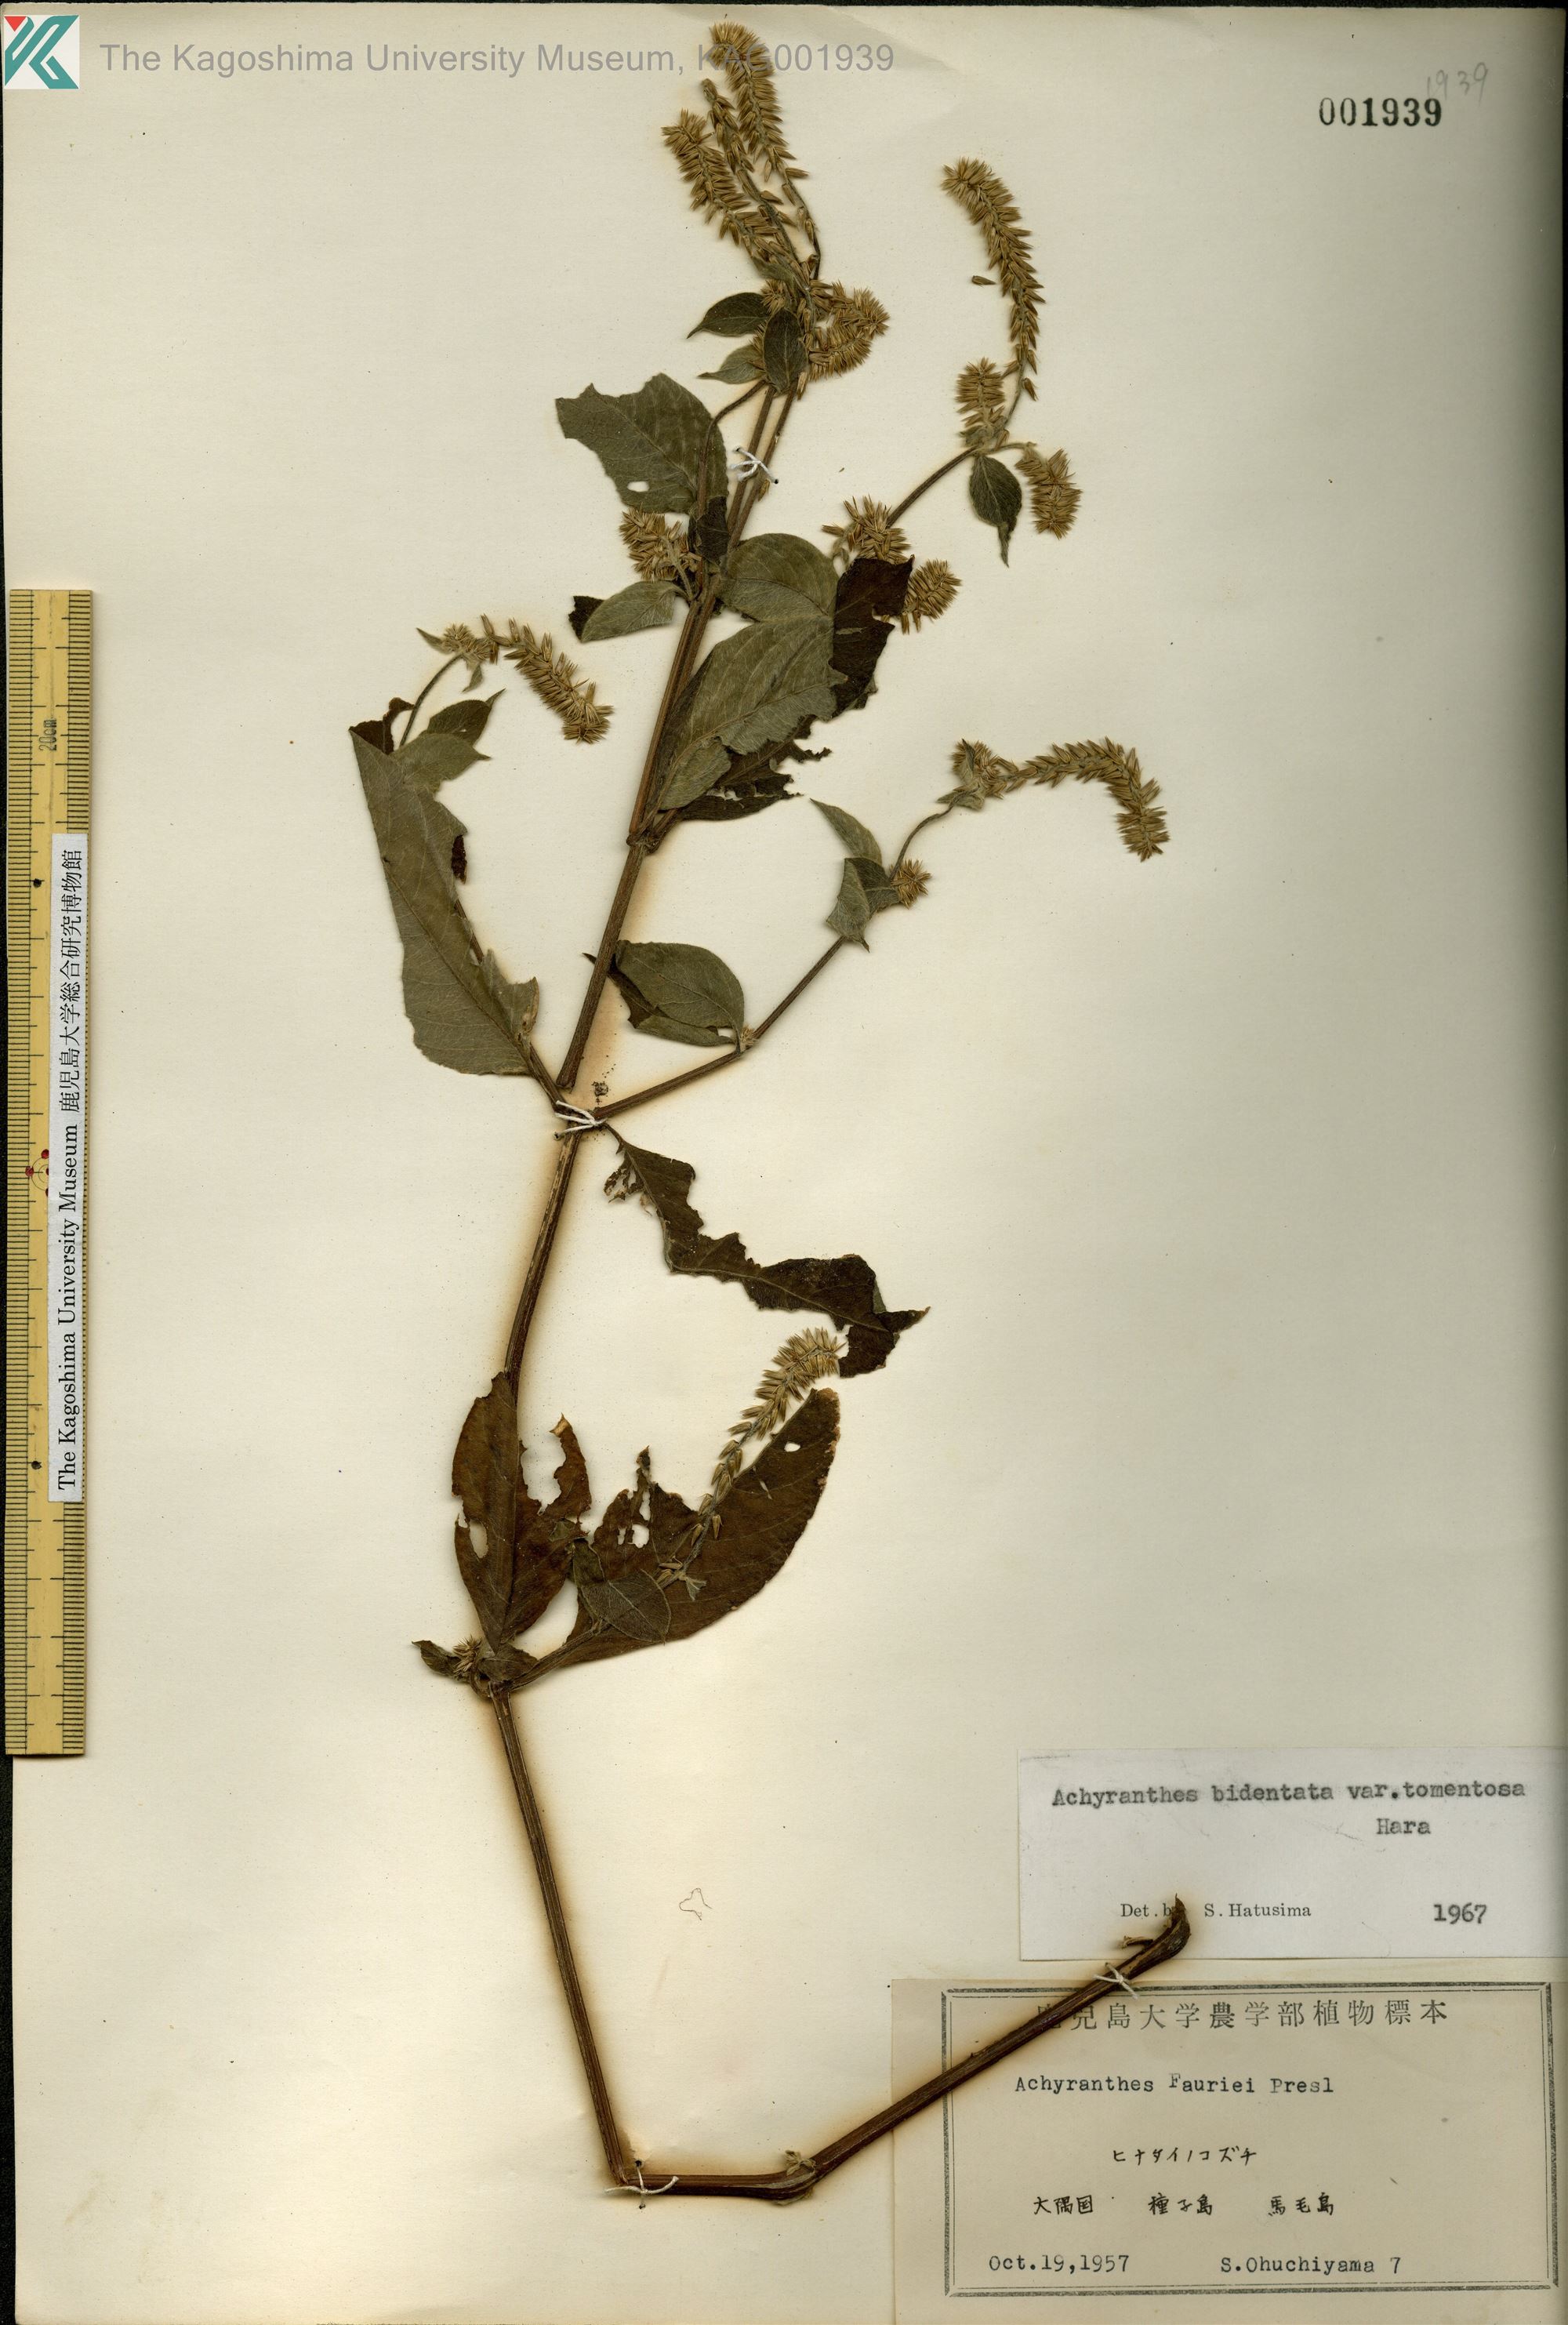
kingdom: Plantae
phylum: Tracheophyta
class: Magnoliopsida
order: Caryophyllales
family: Amaranthaceae
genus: Achyranthes
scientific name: Achyranthes bidentata
